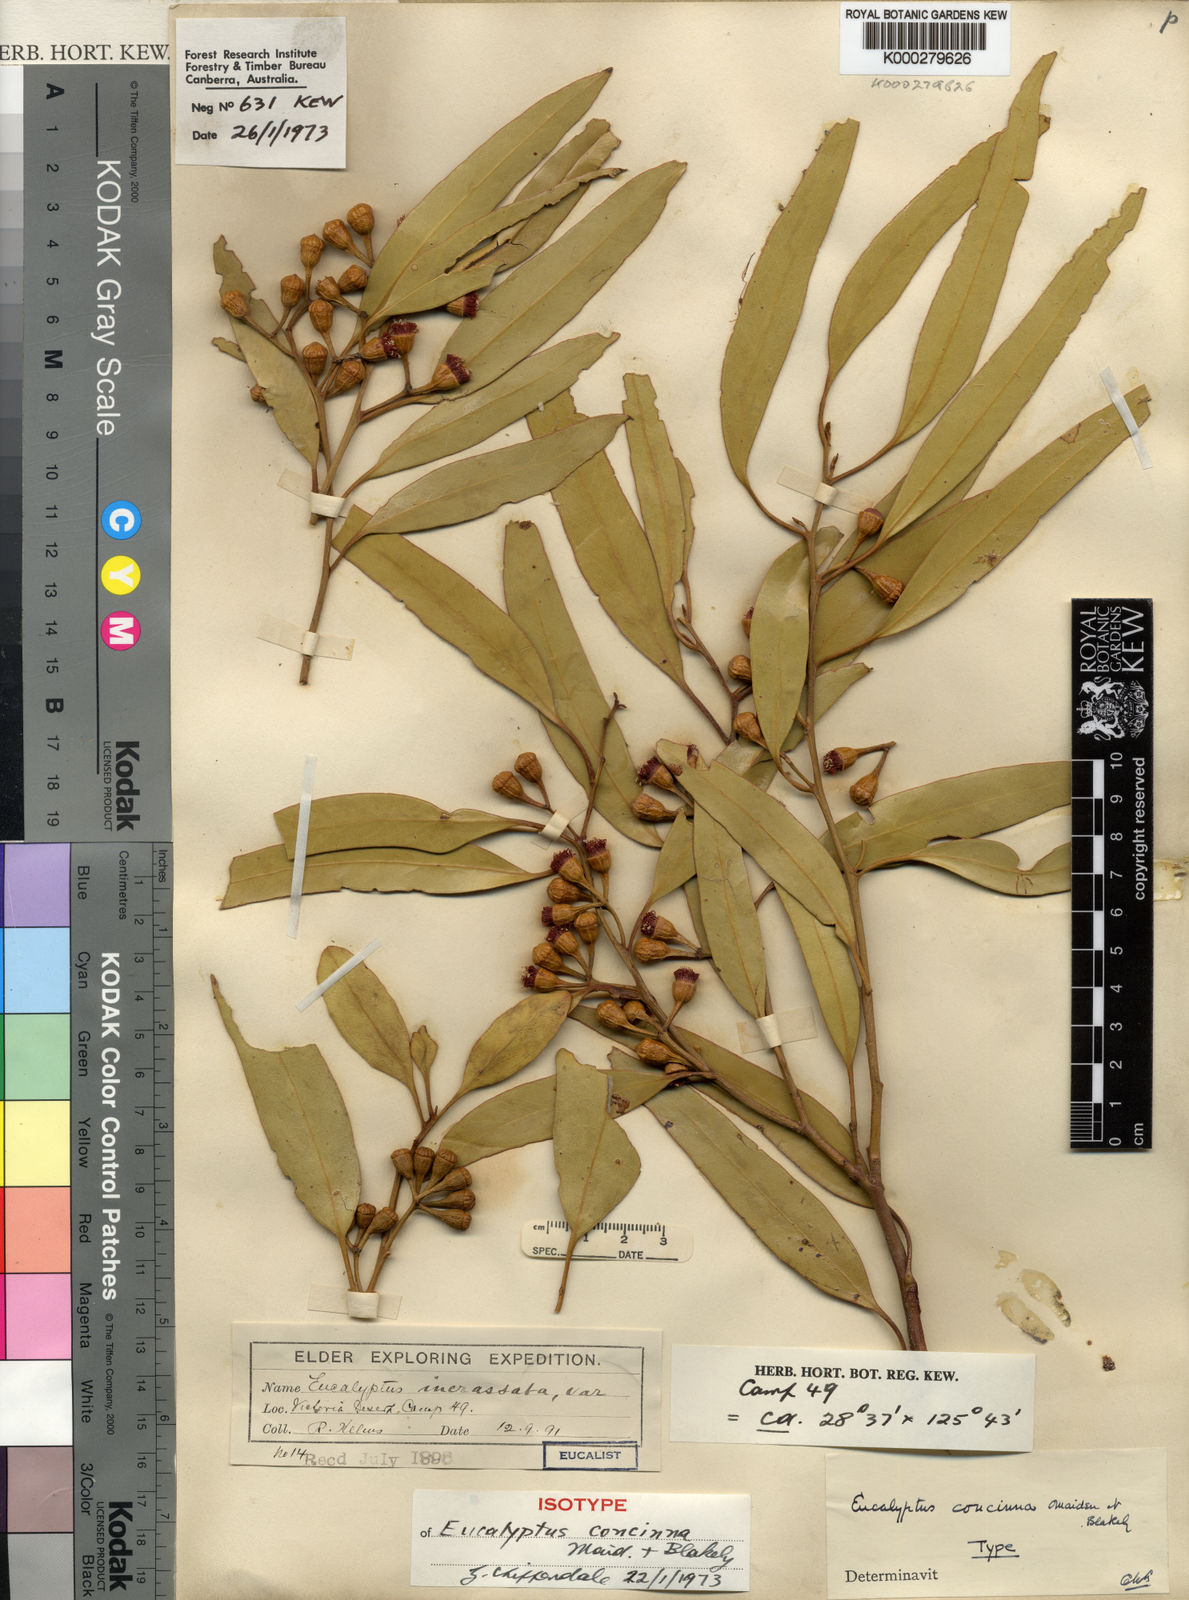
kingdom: Plantae
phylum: Tracheophyta
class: Magnoliopsida
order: Myrtales
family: Myrtaceae
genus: Eucalyptus
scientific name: Eucalyptus concinna
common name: Desert gum
